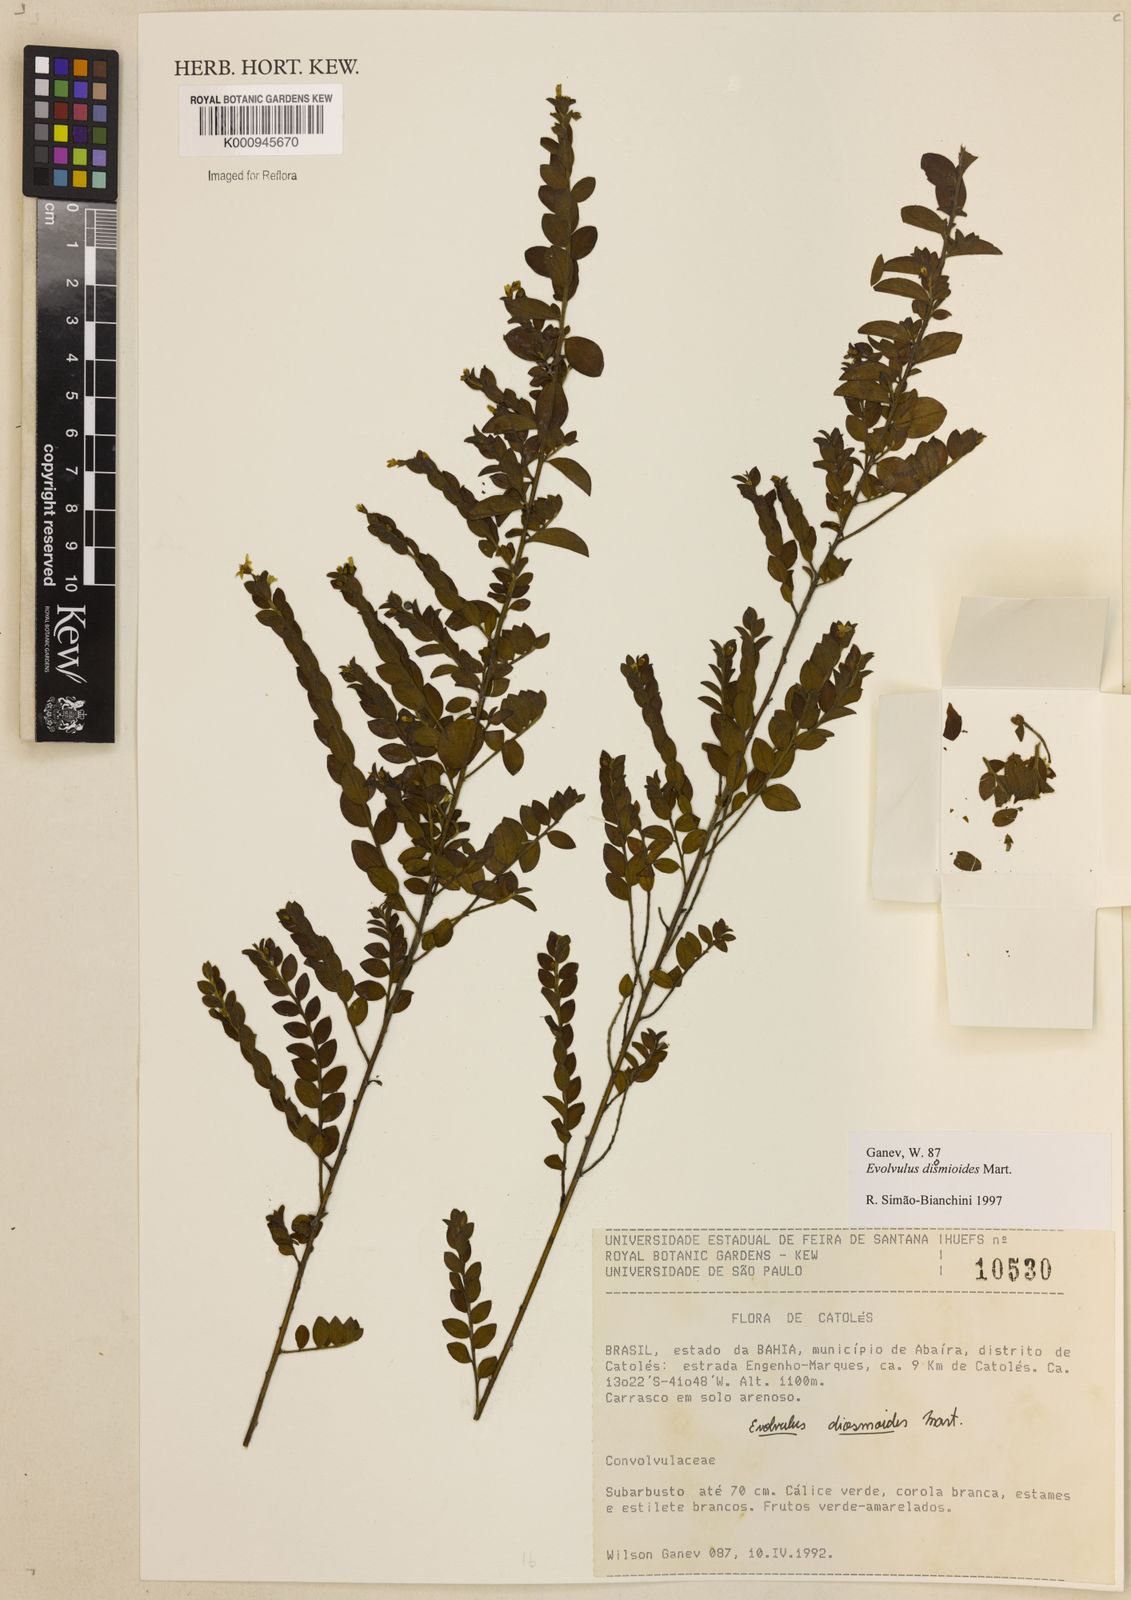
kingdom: Plantae
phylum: Tracheophyta
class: Magnoliopsida
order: Solanales
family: Convolvulaceae
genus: Evolvulus
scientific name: Evolvulus diosmoides
